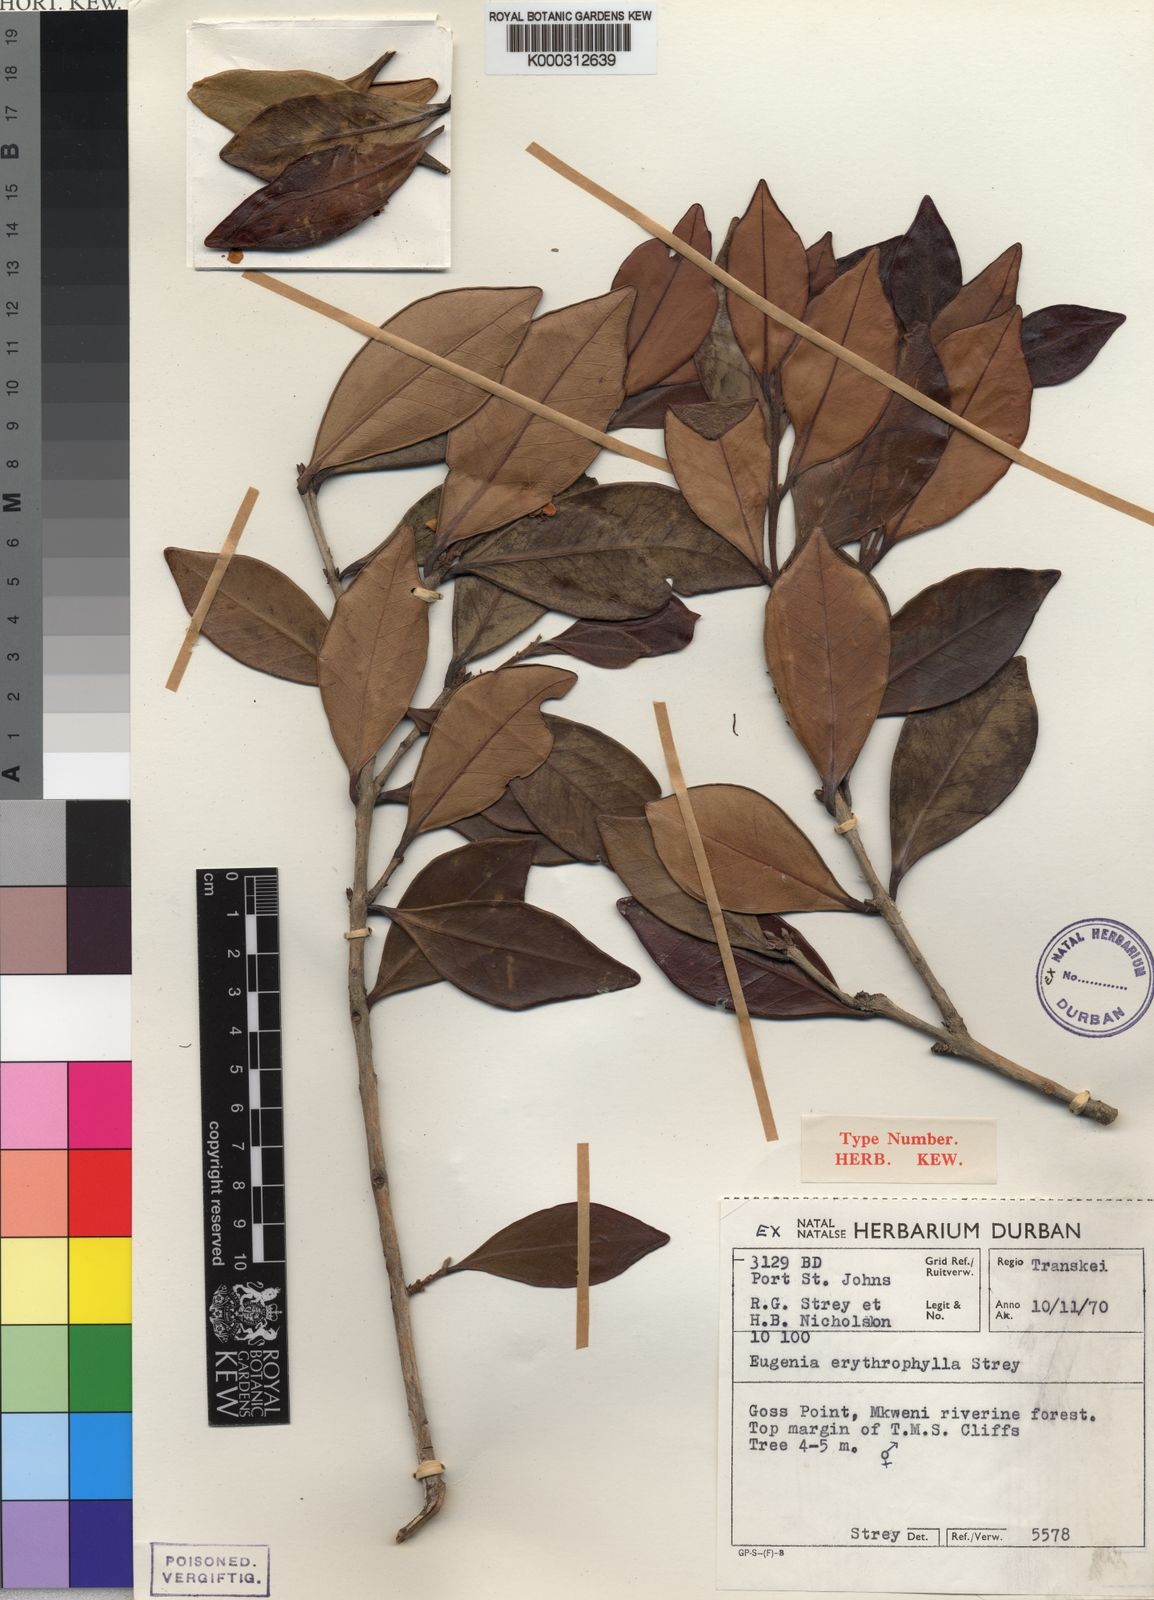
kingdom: Plantae
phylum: Tracheophyta
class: Magnoliopsida
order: Myrtales
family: Myrtaceae
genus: Eugenia
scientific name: Eugenia erythrophylla
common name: Large-leaved myrtle
